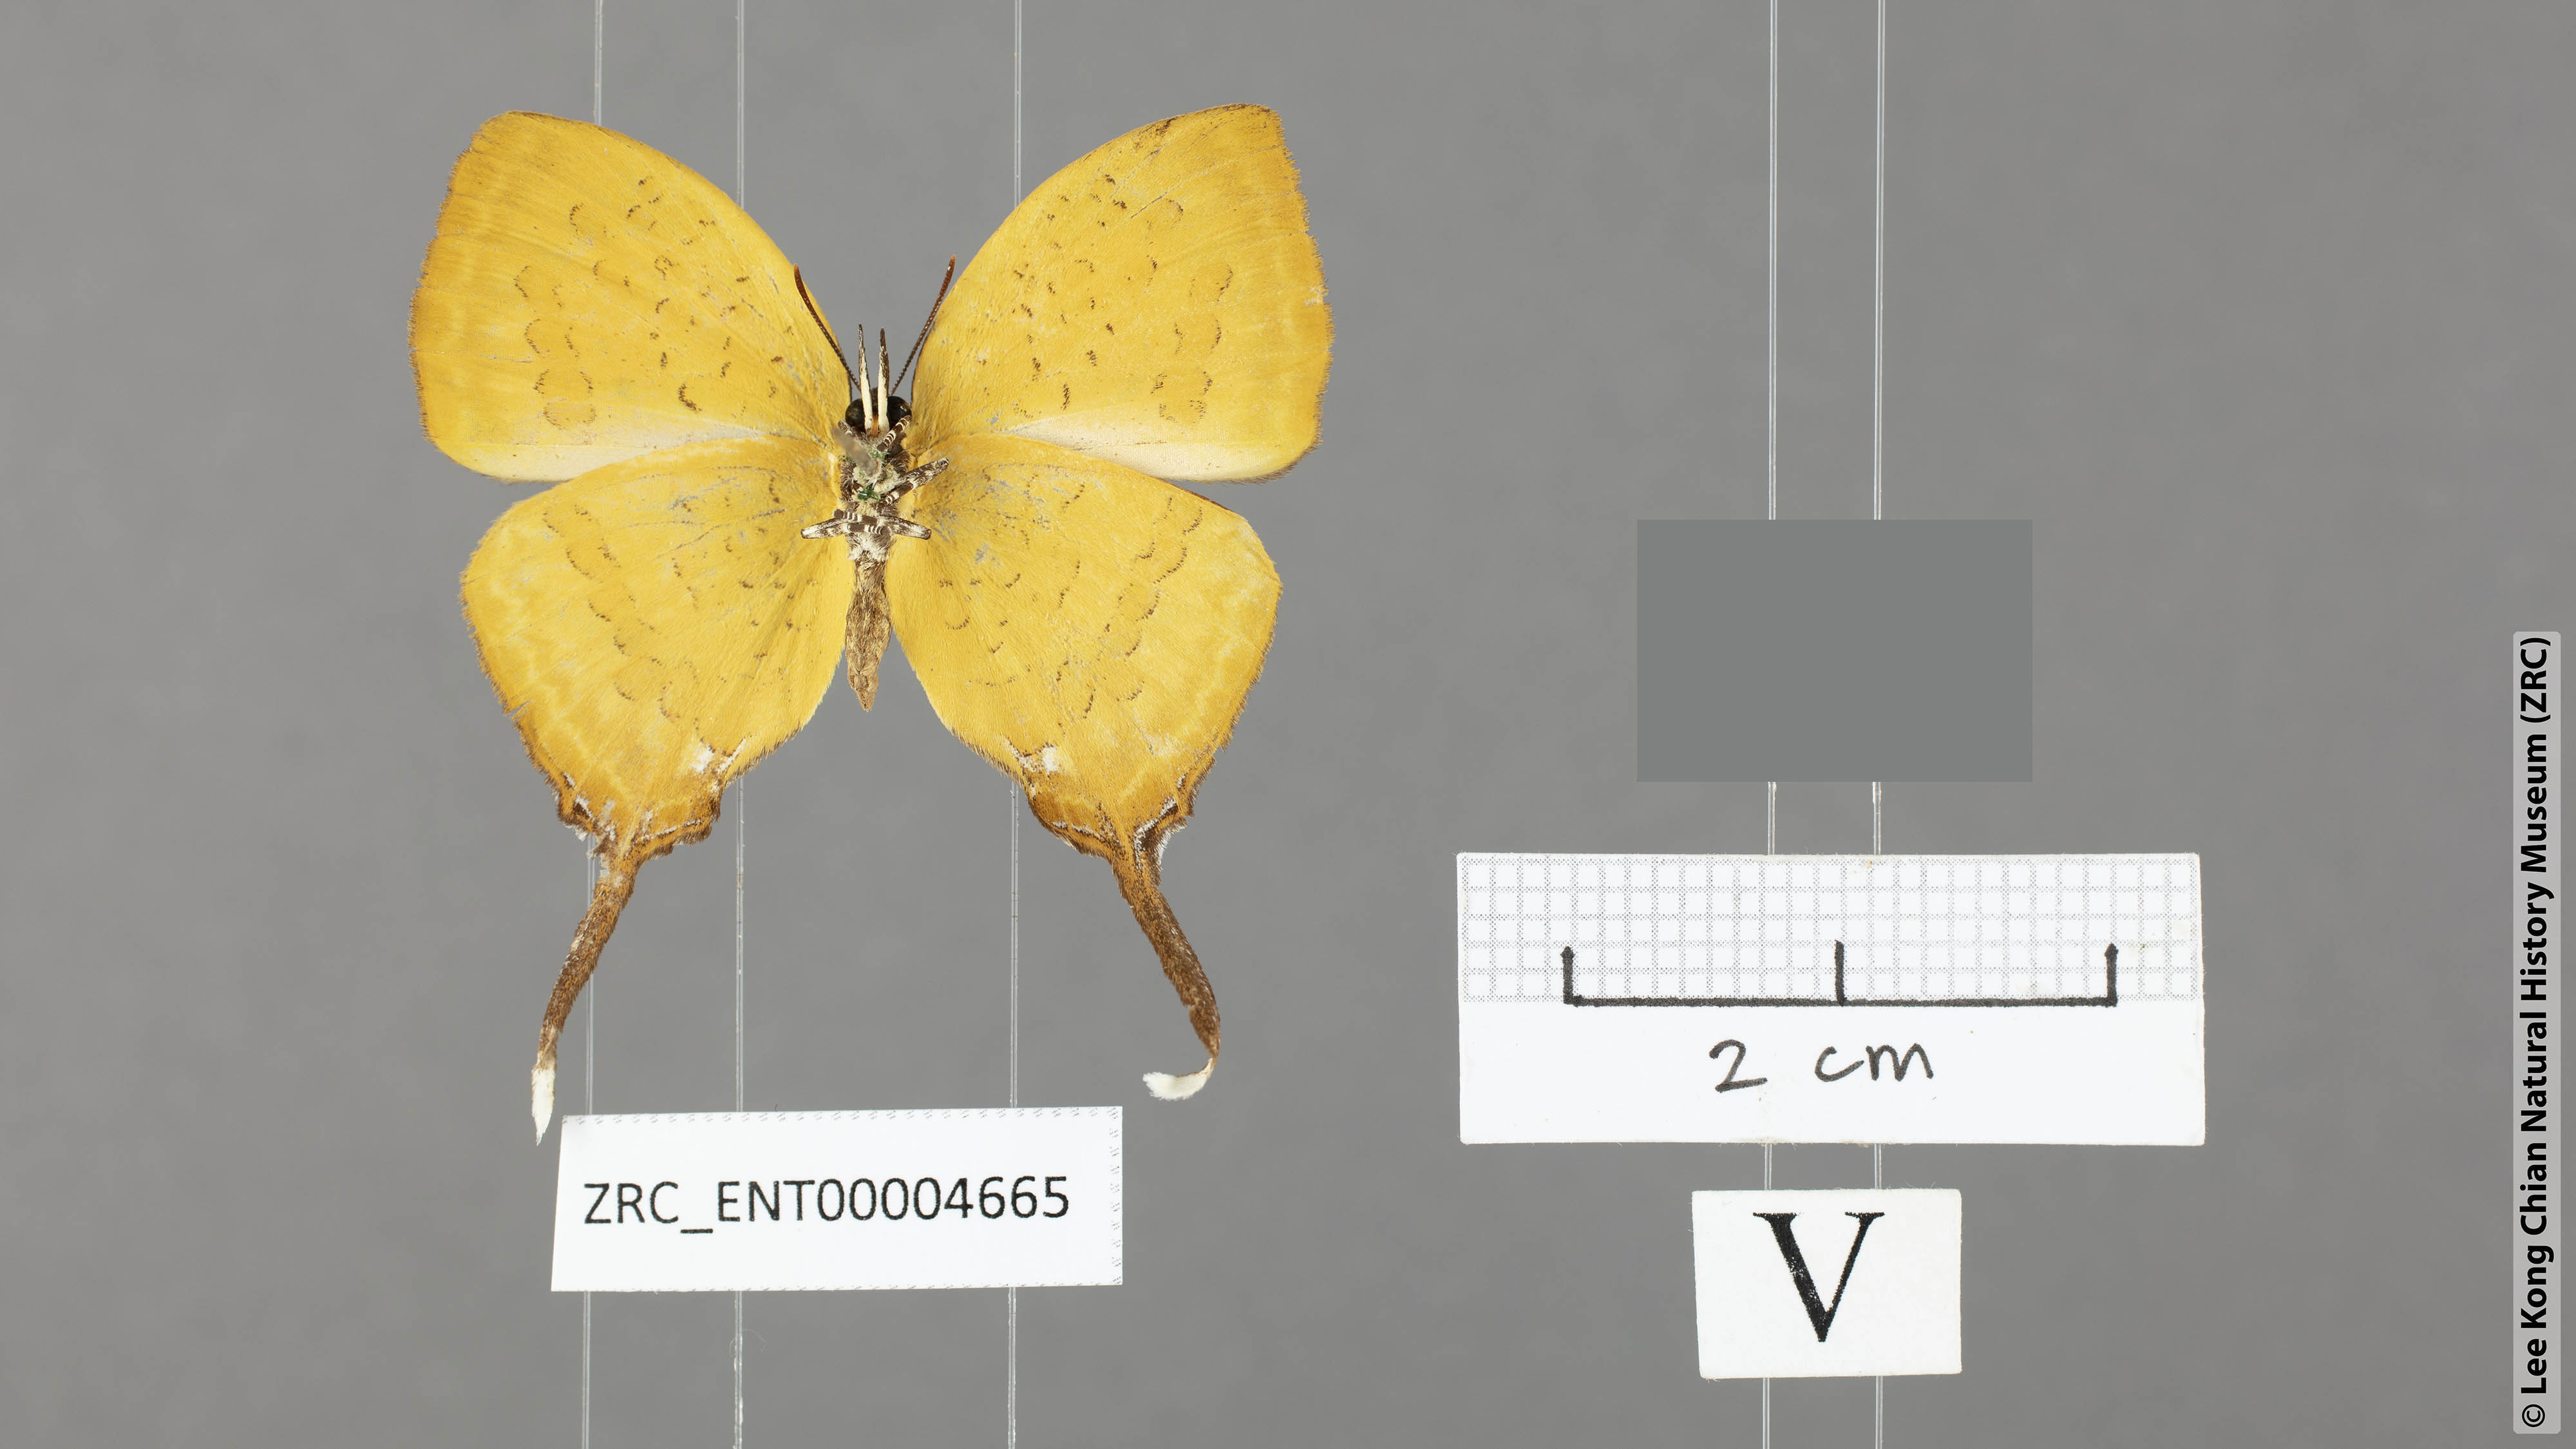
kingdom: Animalia
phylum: Arthropoda
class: Insecta
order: Lepidoptera
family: Lycaenidae
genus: Yasoda
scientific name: Yasoda pitane
